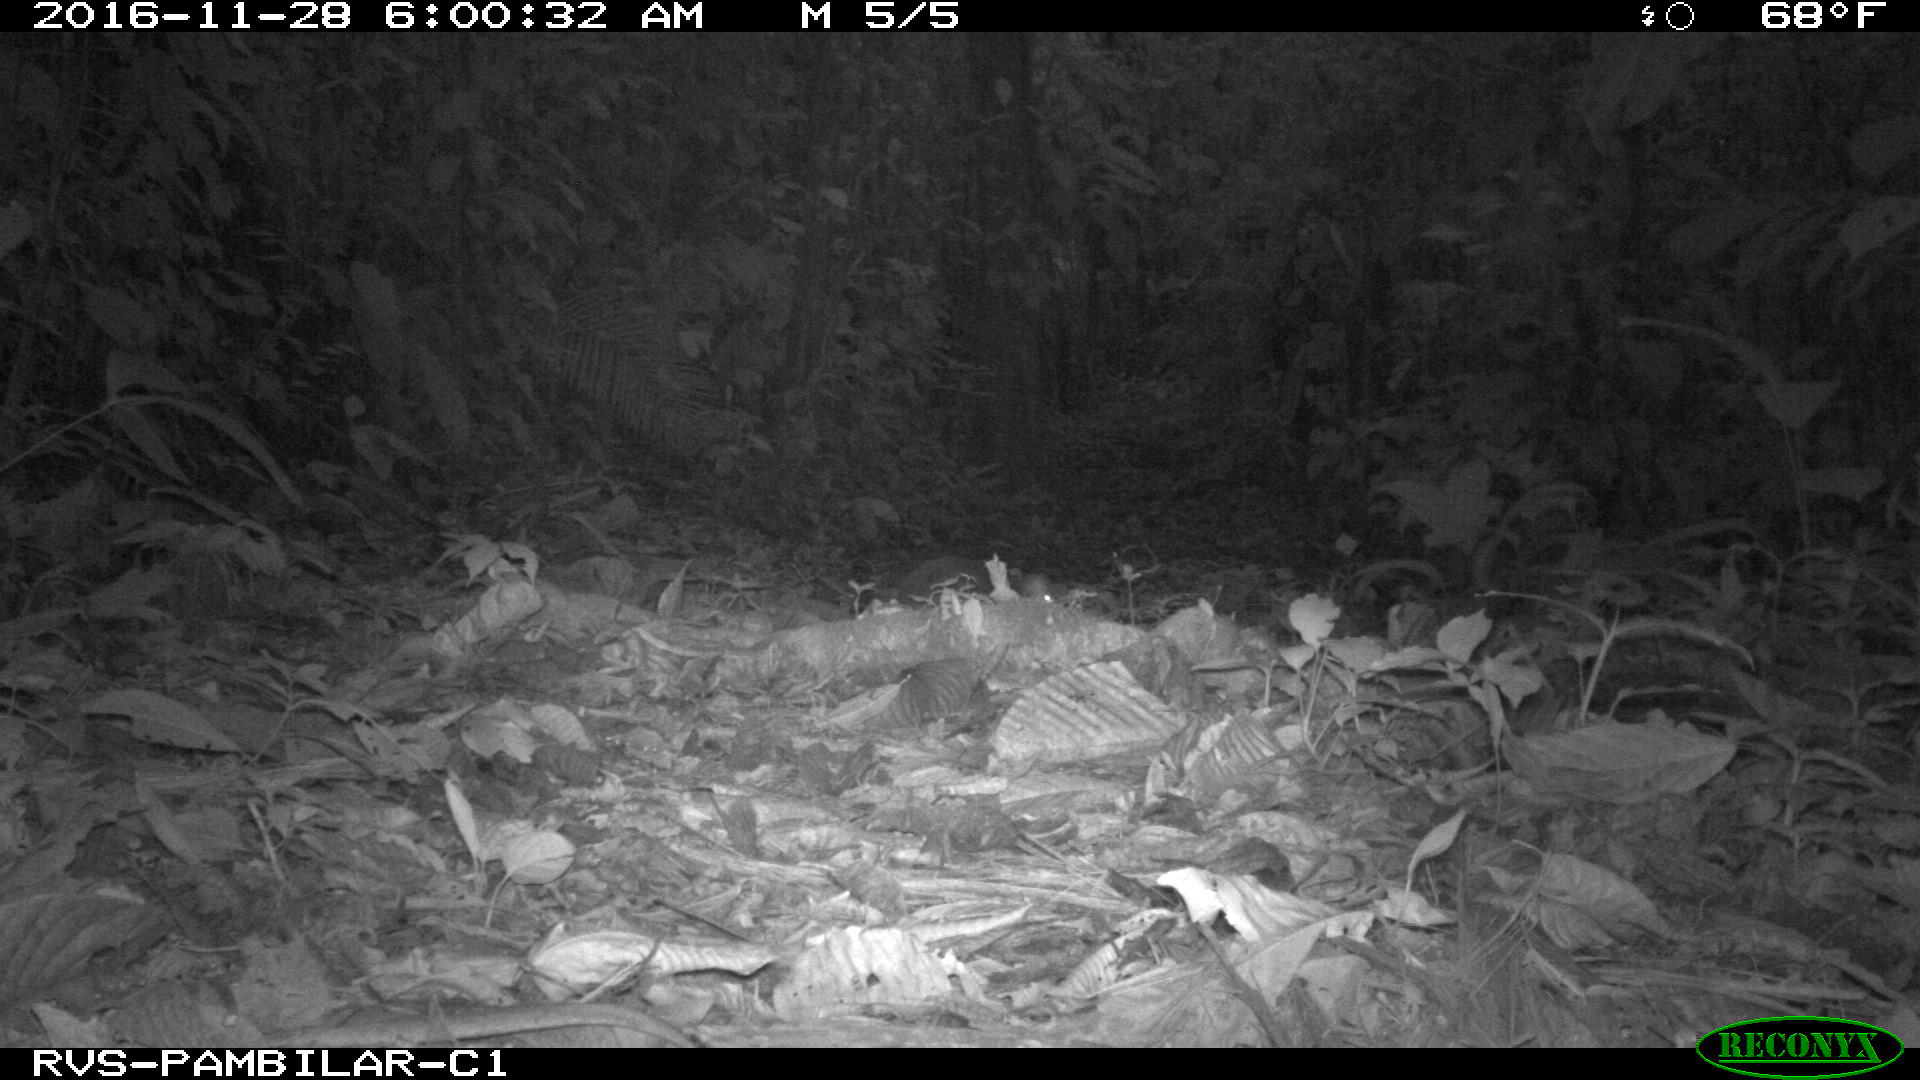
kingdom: Animalia
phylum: Chordata
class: Mammalia
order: Rodentia
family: Dasyproctidae
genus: Dasyprocta
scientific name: Dasyprocta punctata
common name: Central american agouti
